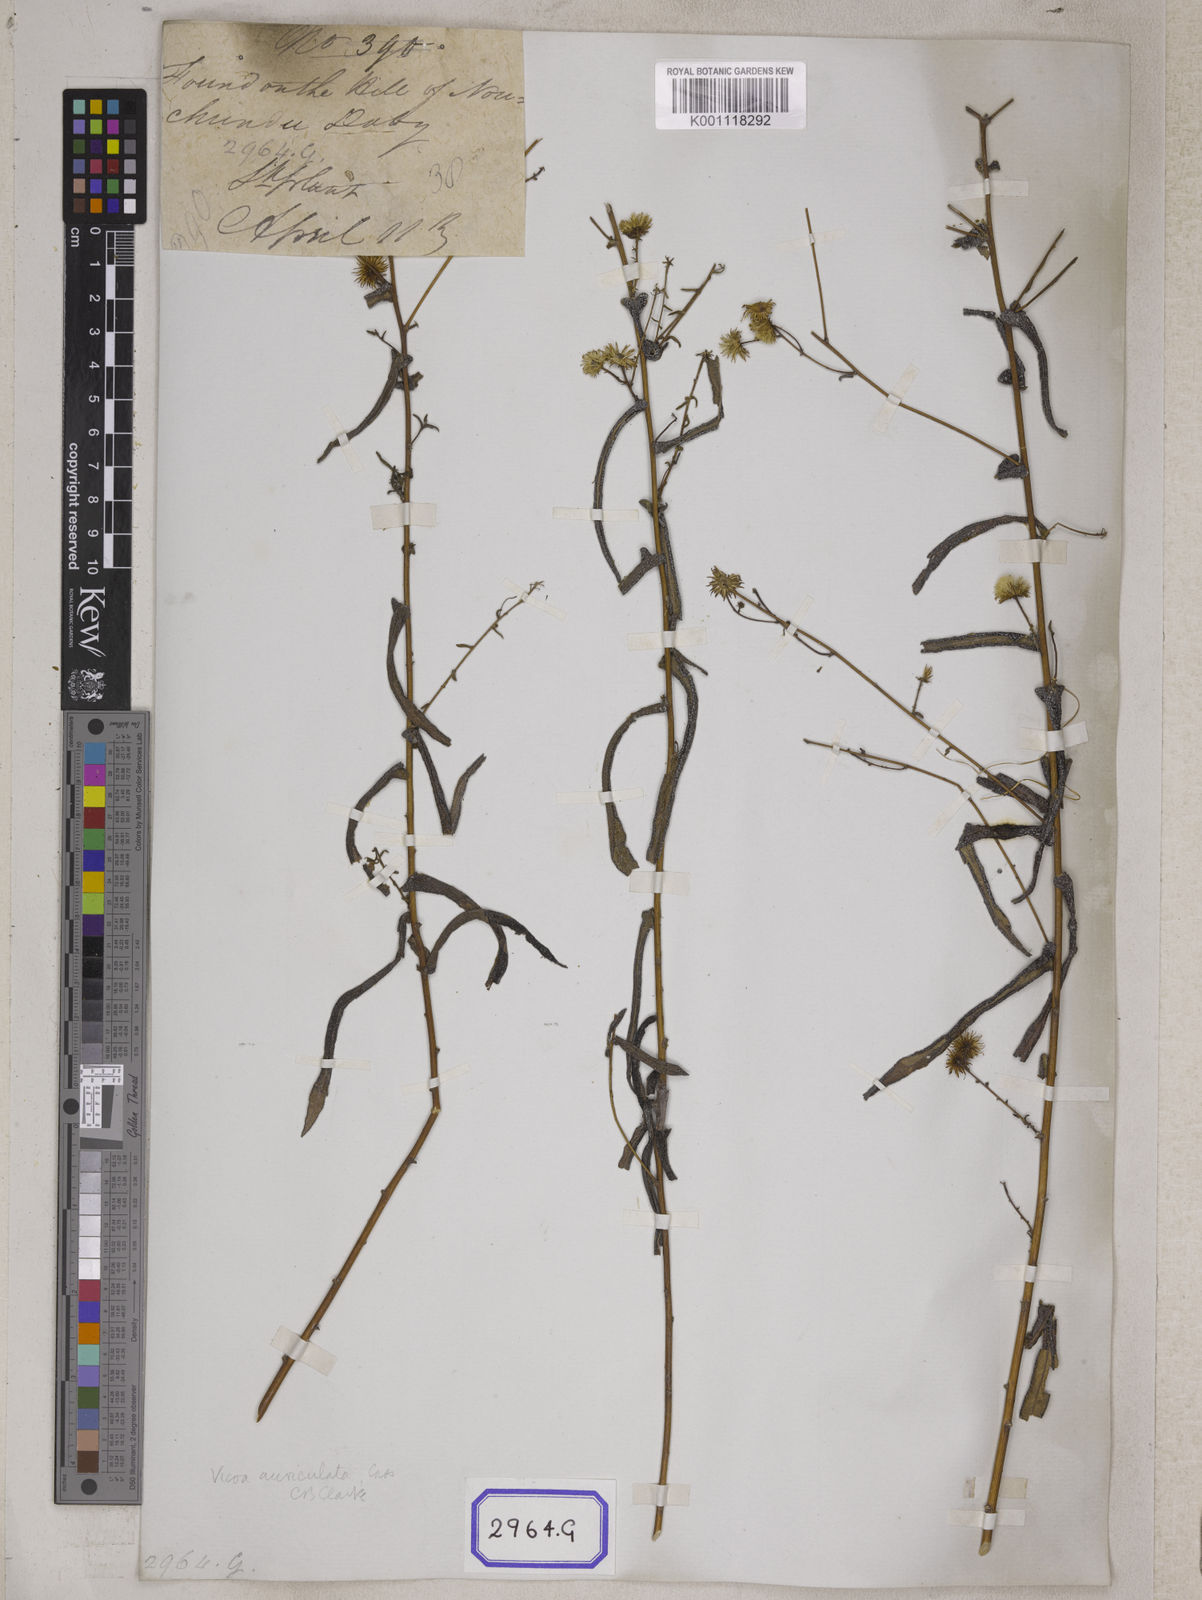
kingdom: Plantae
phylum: Tracheophyta
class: Magnoliopsida
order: Asterales
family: Asteraceae
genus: Vicoa
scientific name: Vicoa indica
